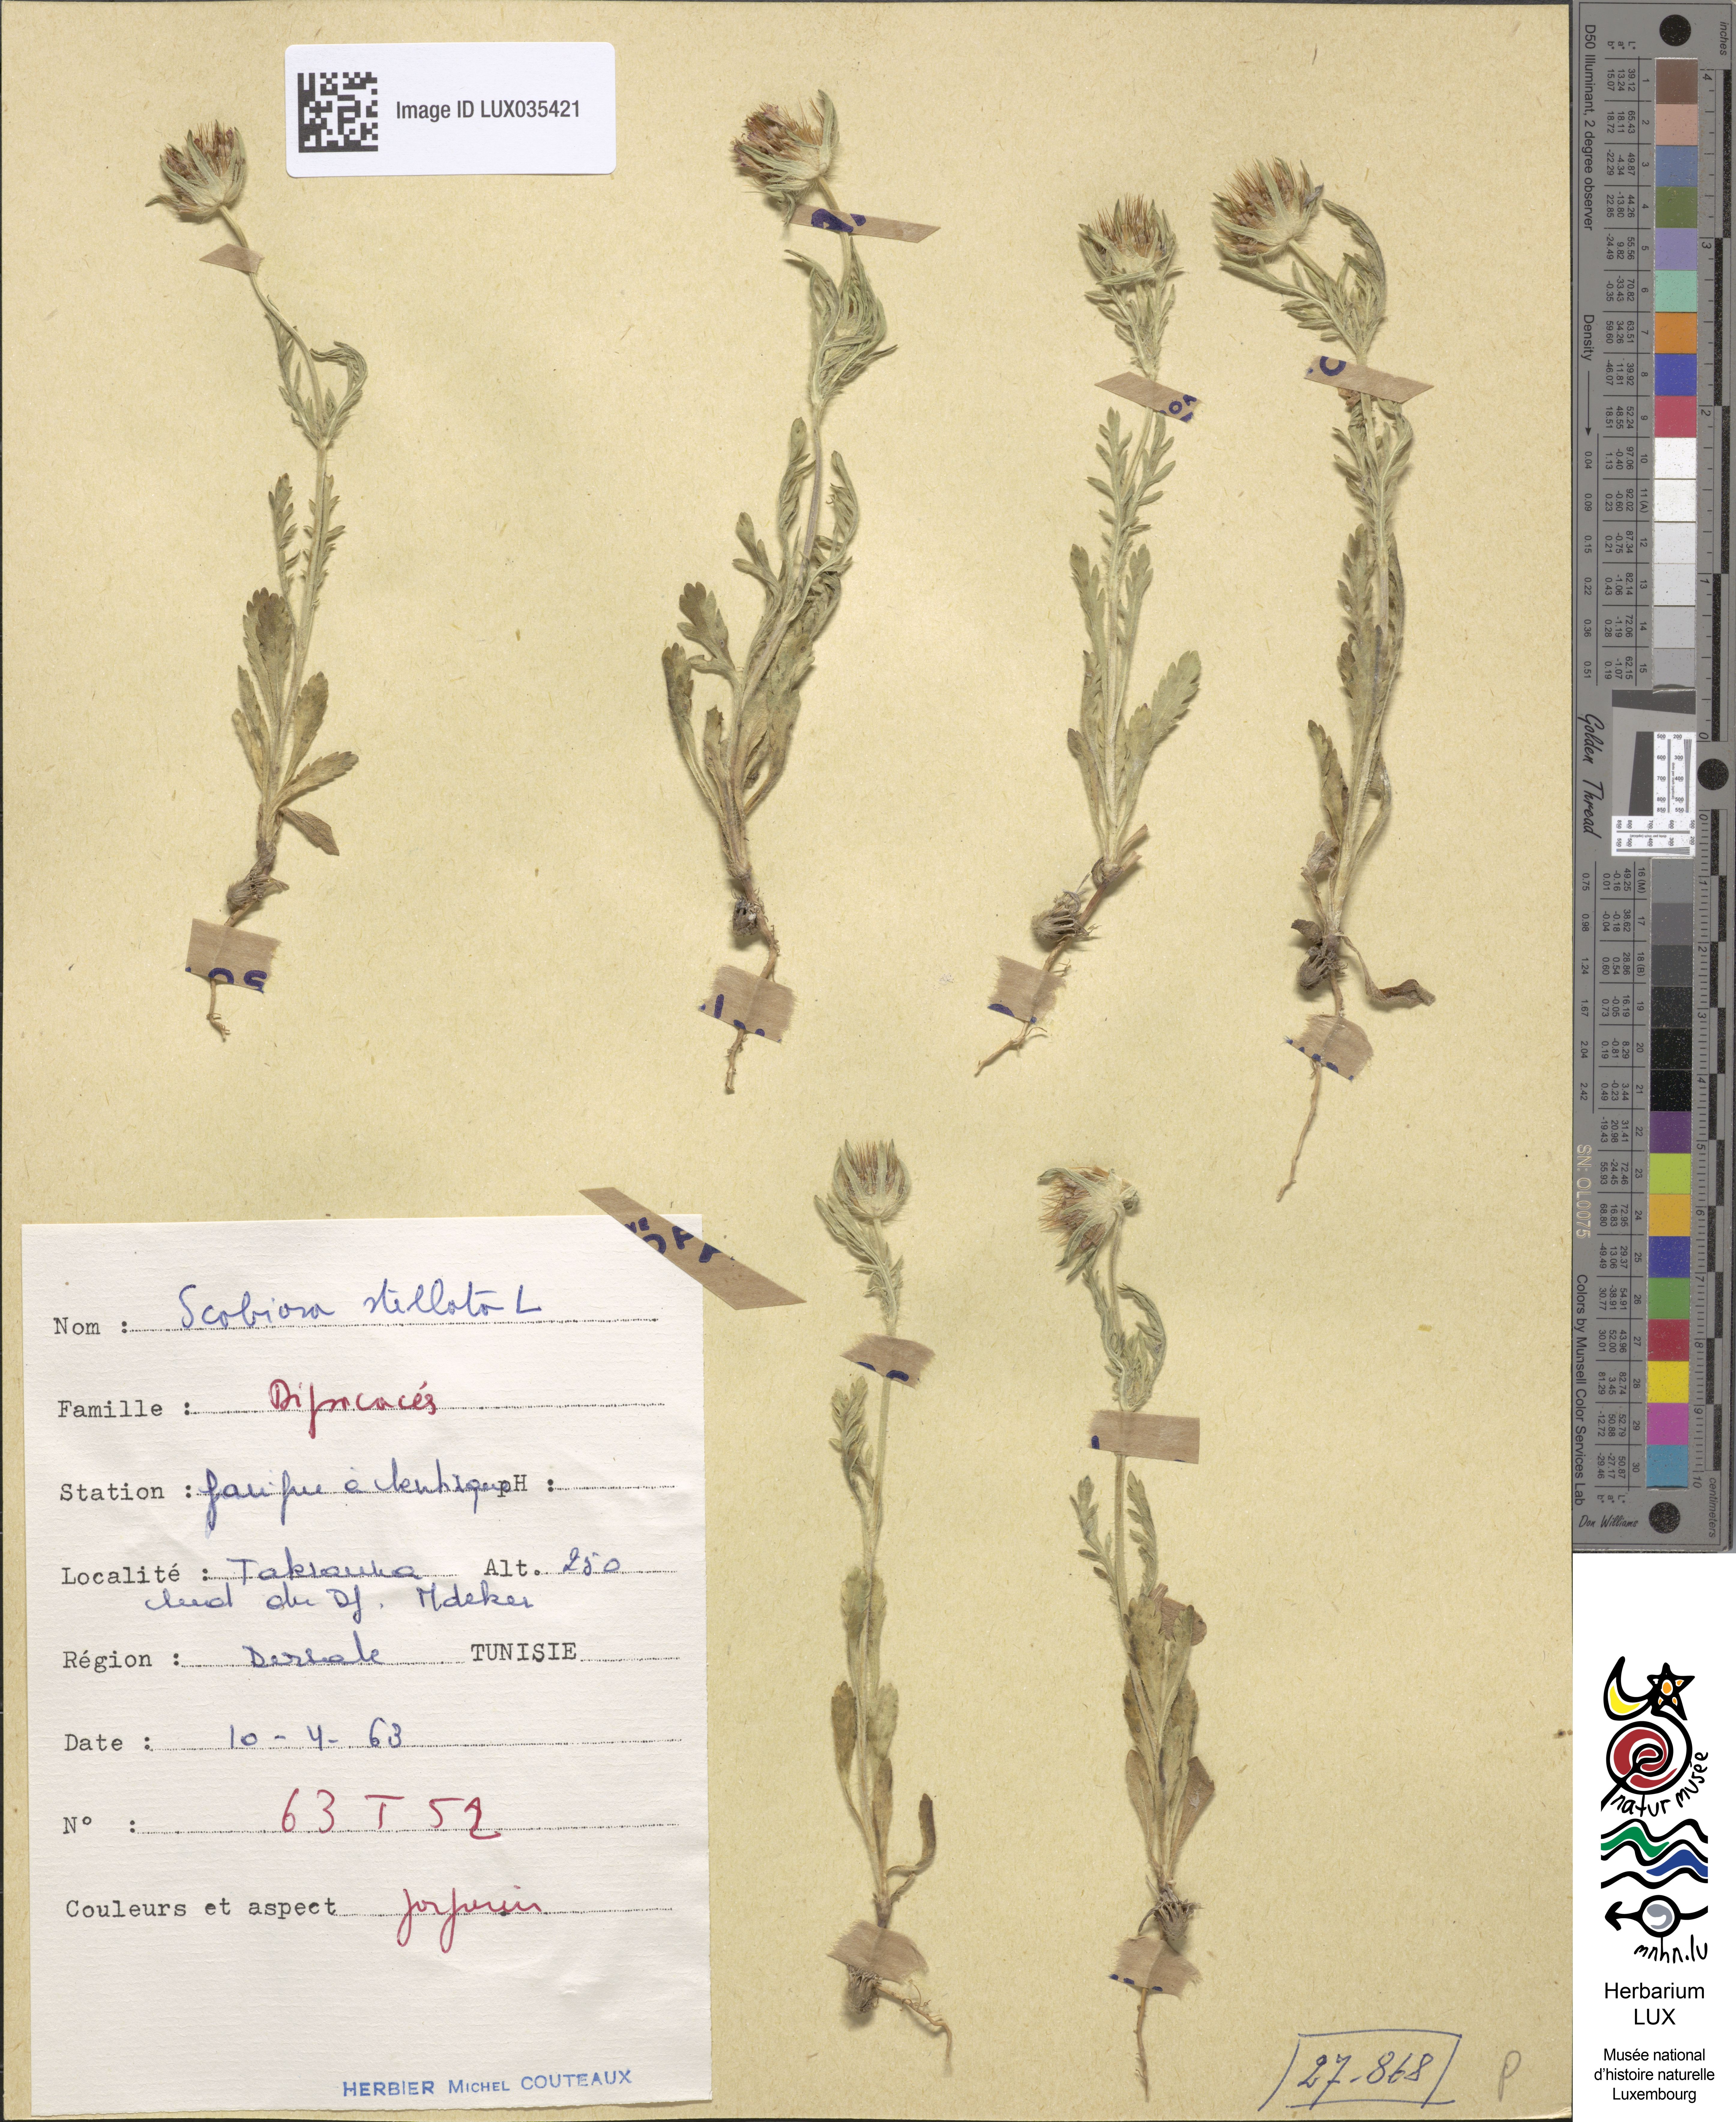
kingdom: Plantae
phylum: Tracheophyta
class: Magnoliopsida
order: Dipsacales
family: Caprifoliaceae
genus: Sixalix
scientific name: Sixalix atropurpurea
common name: Sweet scabious
